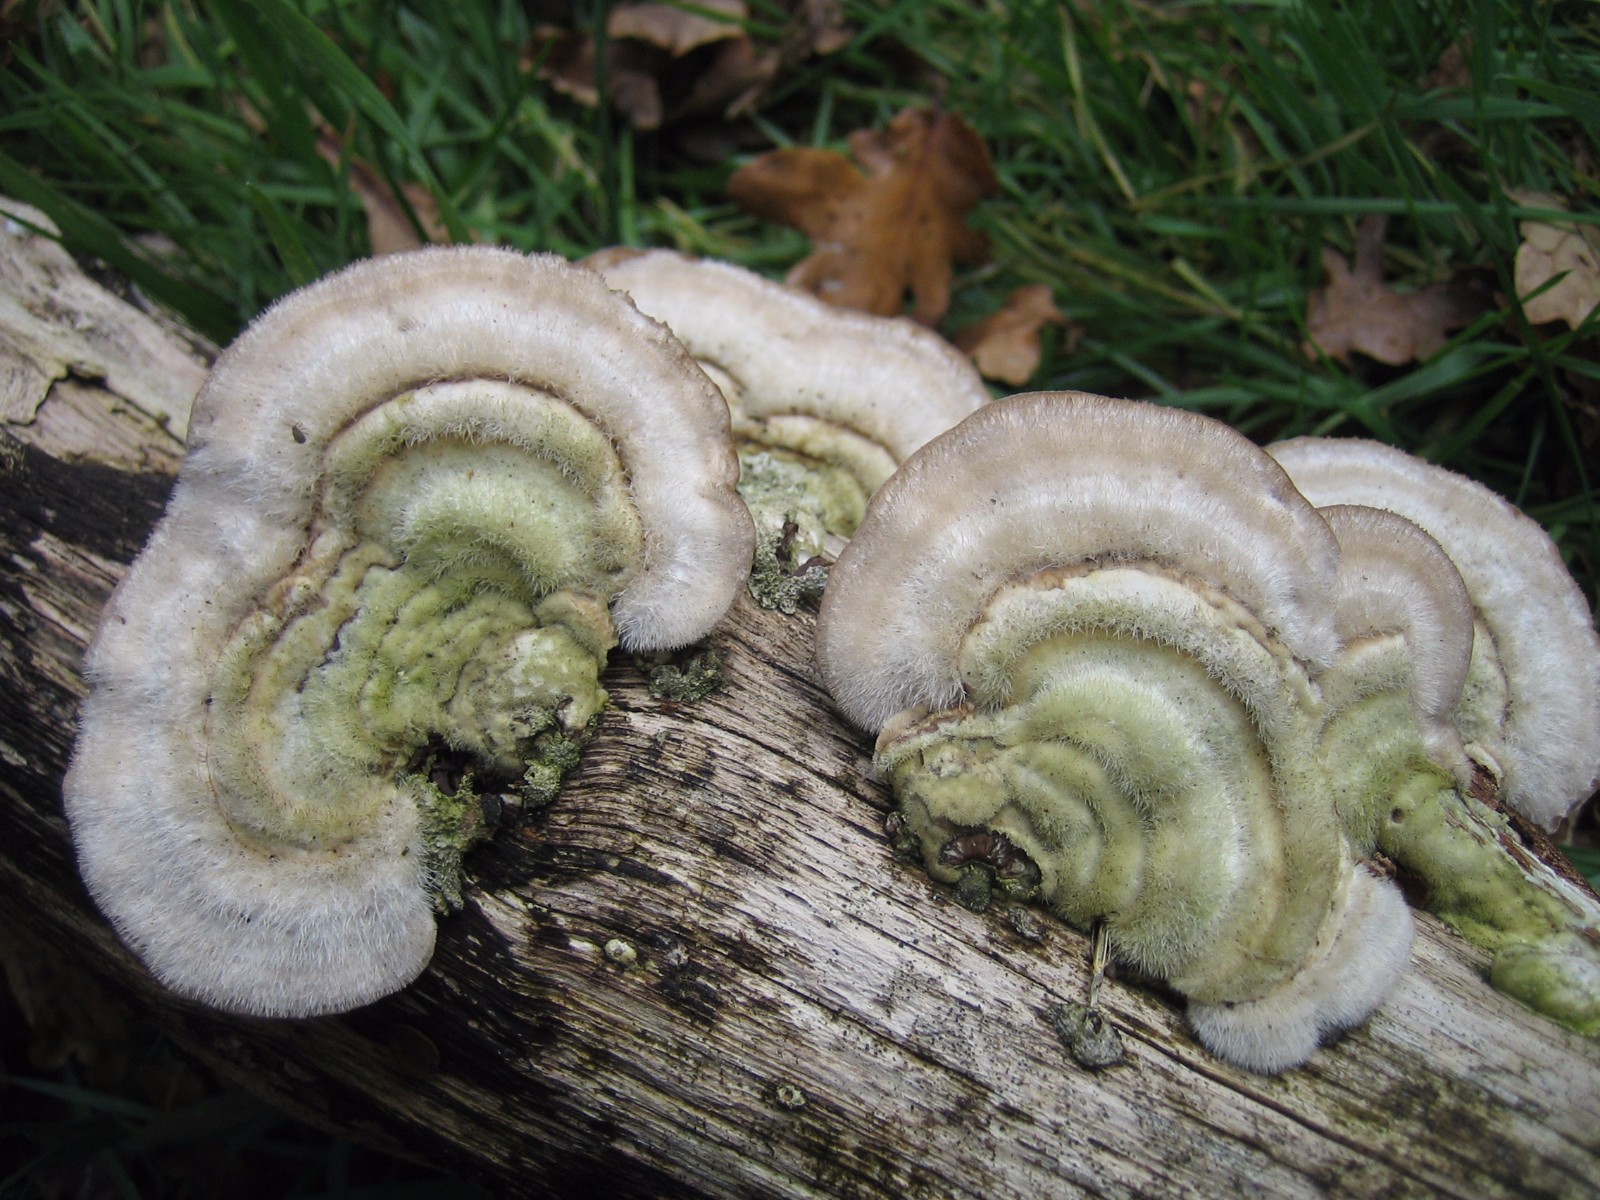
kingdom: Fungi
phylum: Basidiomycota
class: Agaricomycetes
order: Polyporales
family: Polyporaceae
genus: Trametes
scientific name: Trametes hirsuta
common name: håret læderporesvamp
